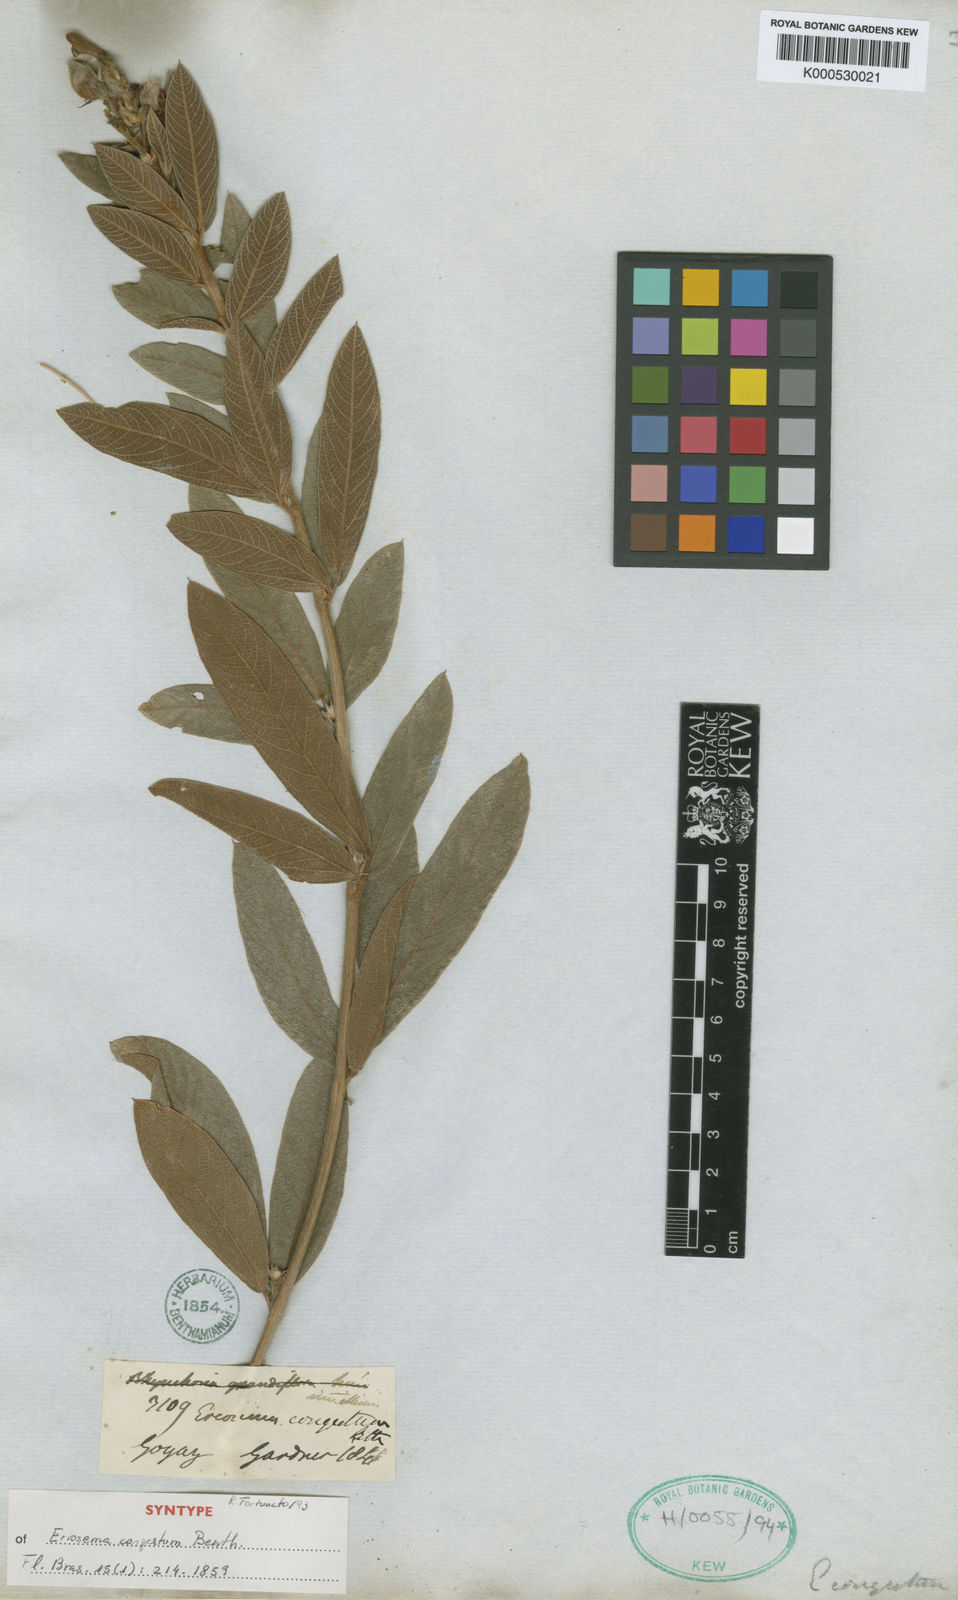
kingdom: Plantae
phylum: Tracheophyta
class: Magnoliopsida
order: Fabales
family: Fabaceae
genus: Eriosema
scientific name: Eriosema congestum
